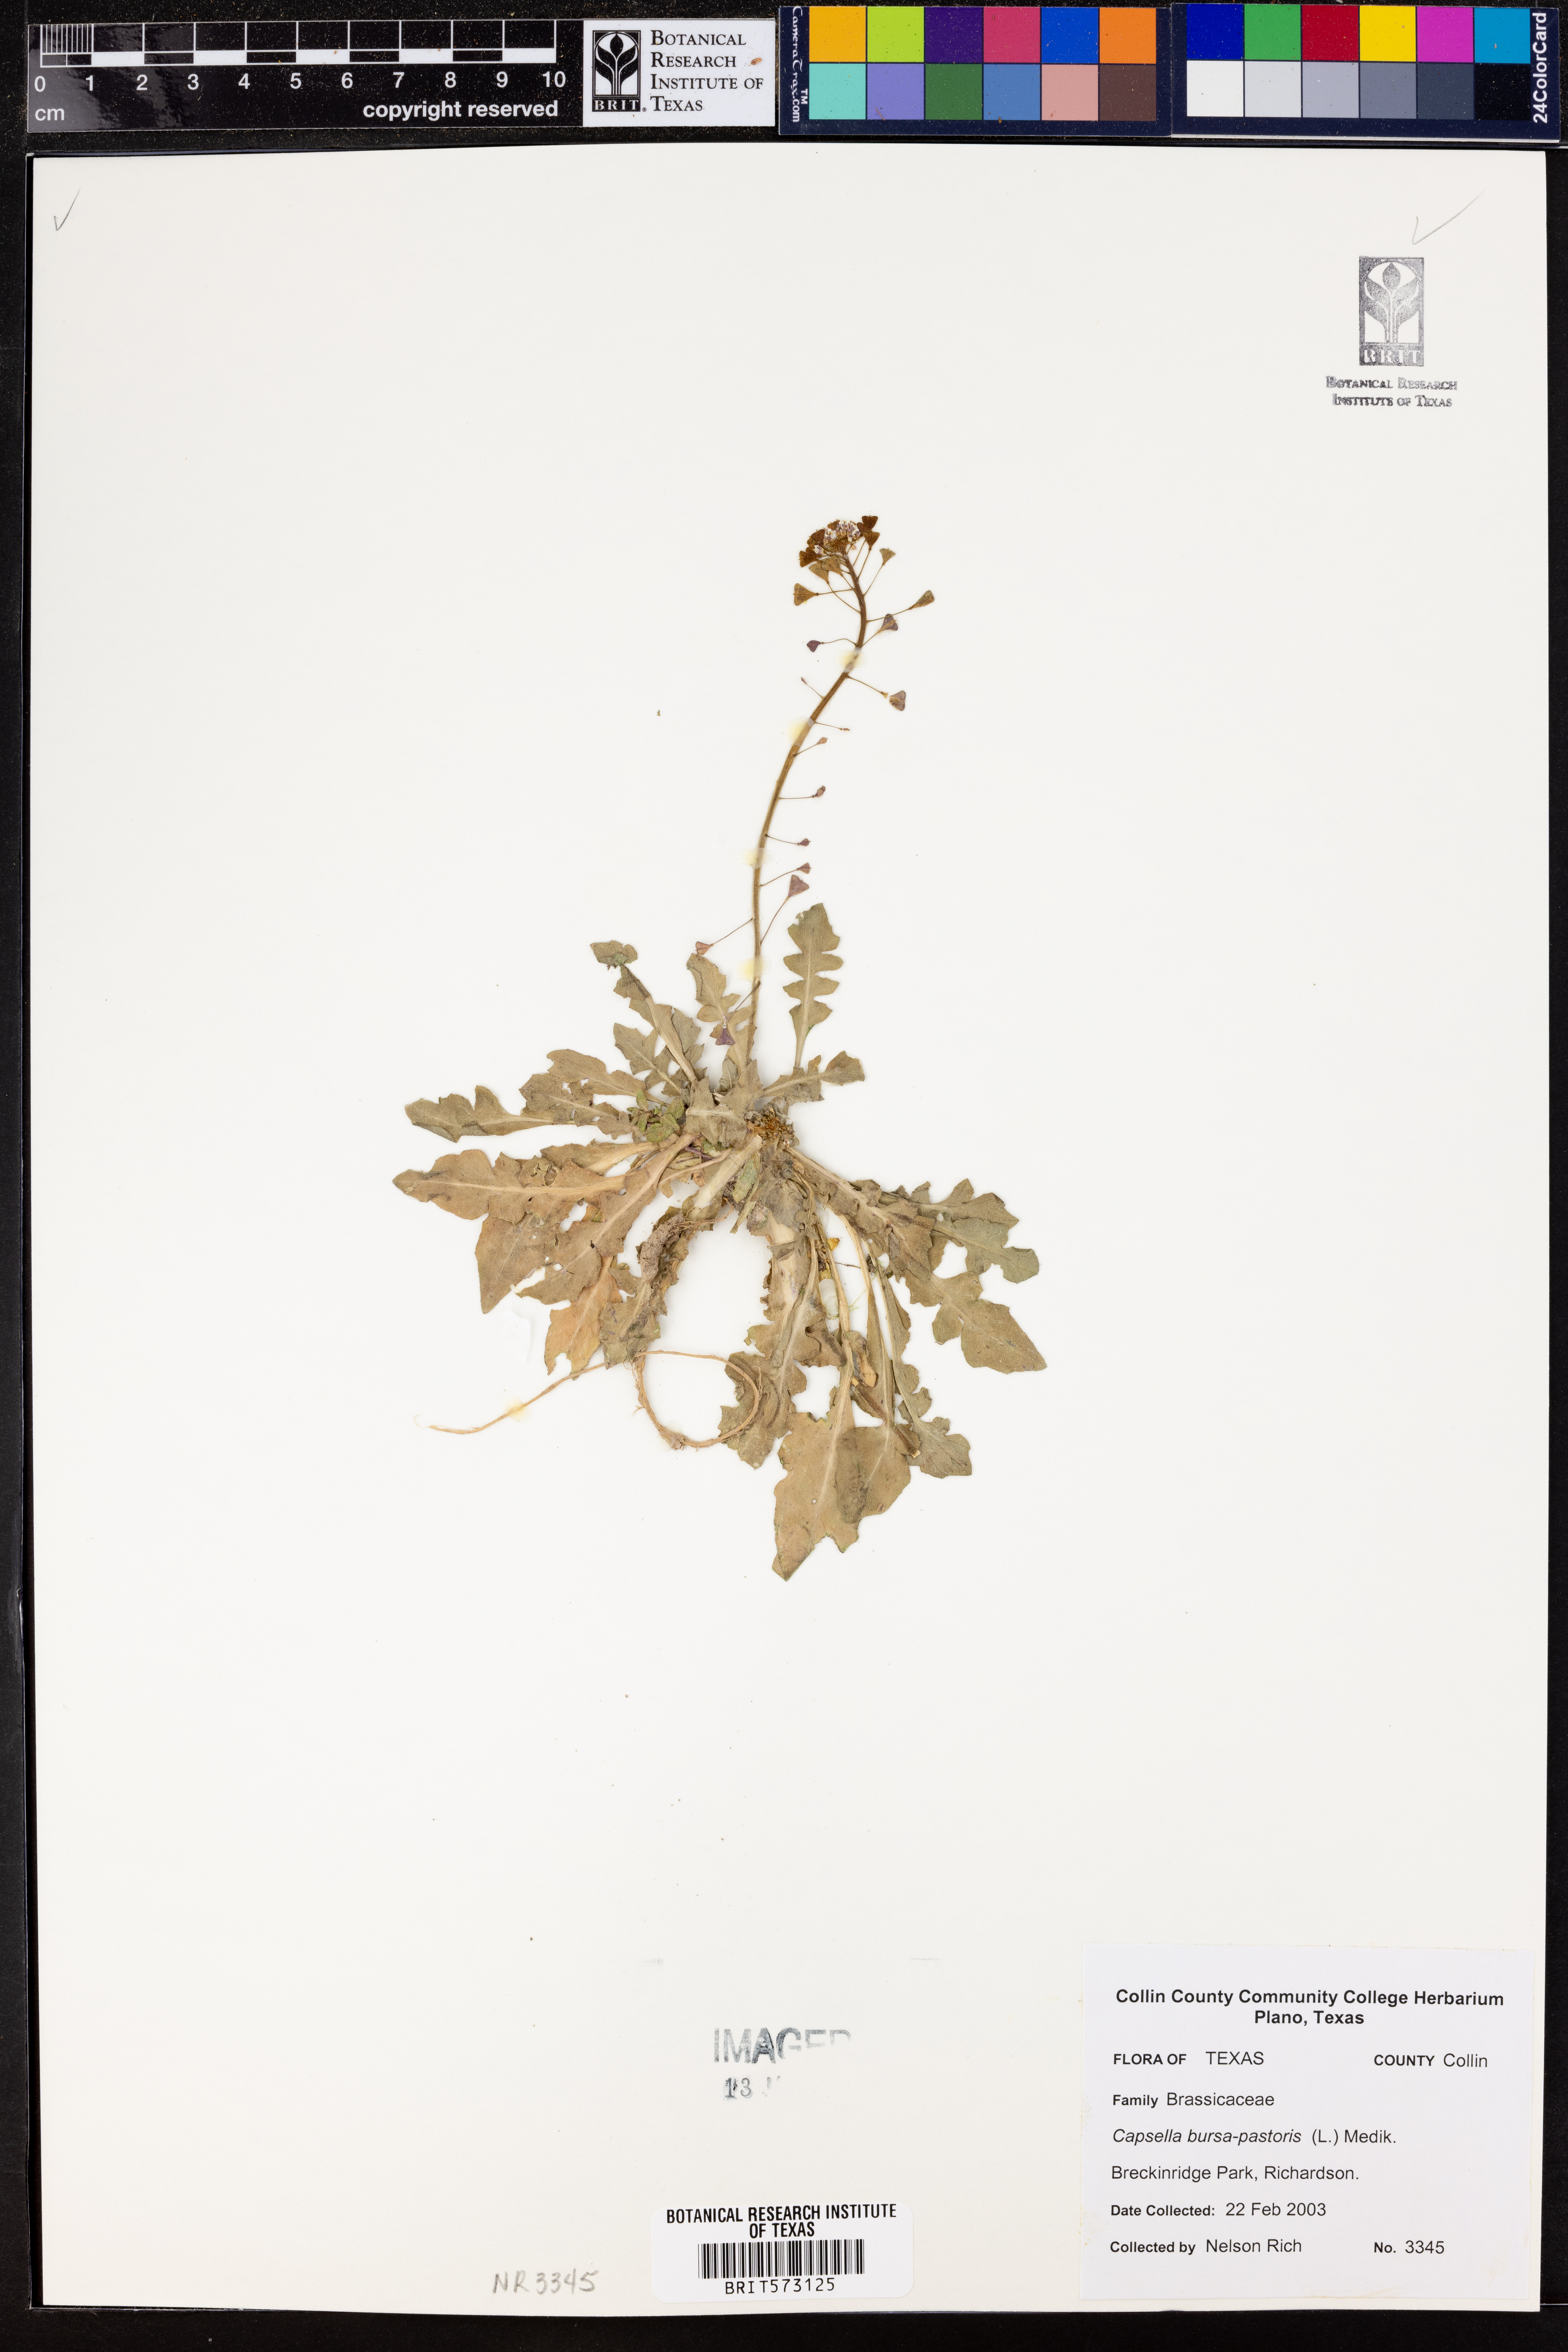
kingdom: Plantae
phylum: Tracheophyta
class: Magnoliopsida
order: Brassicales
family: Brassicaceae
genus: Capsella
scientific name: Capsella bursa-pastoris
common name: Shepherd's purse
